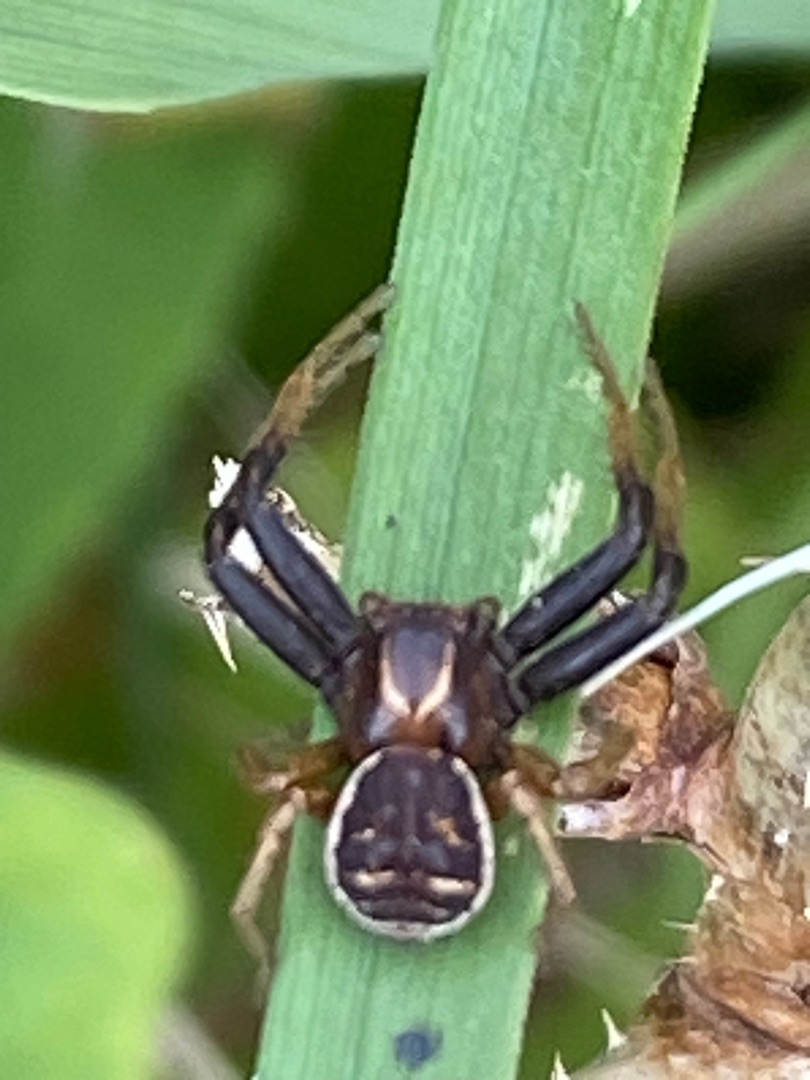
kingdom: Animalia
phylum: Arthropoda
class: Arachnida
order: Araneae
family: Thomisidae
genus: Xysticus
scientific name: Xysticus bifasciatus
